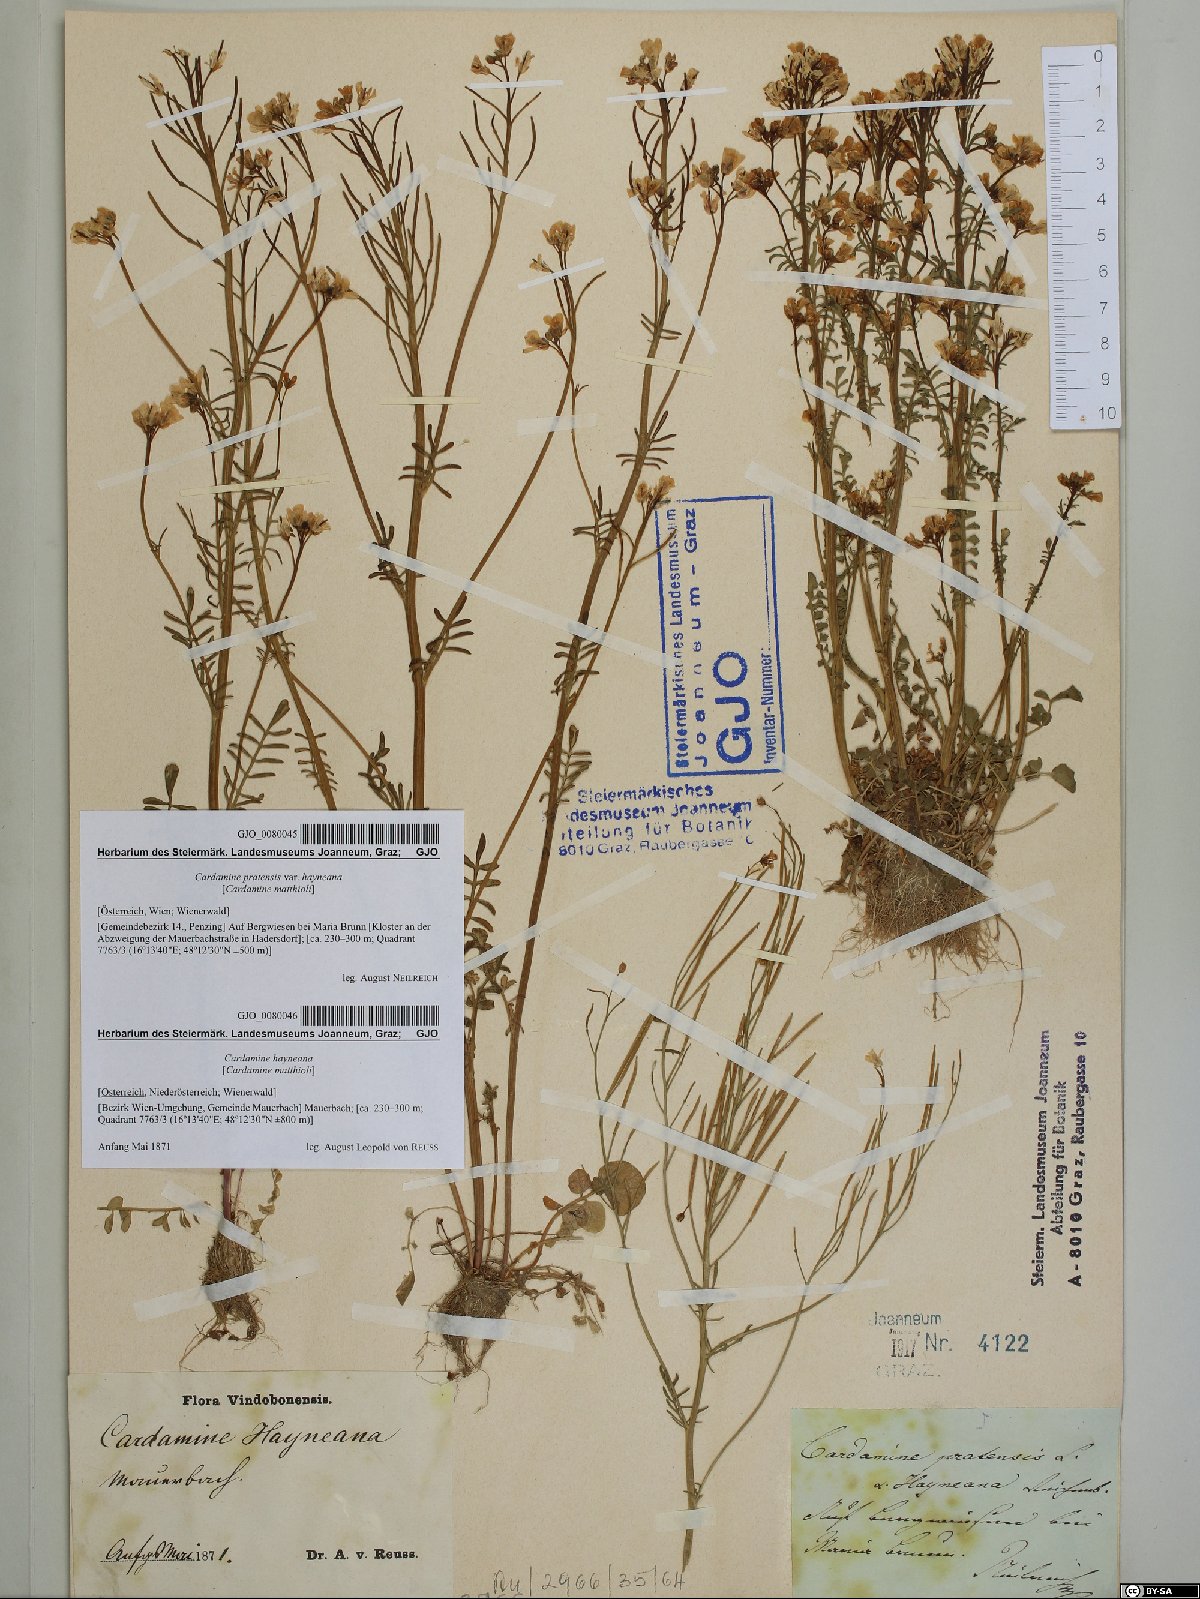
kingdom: Plantae
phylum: Tracheophyta
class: Magnoliopsida
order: Brassicales
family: Brassicaceae
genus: Cardamine
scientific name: Cardamine matthioli
